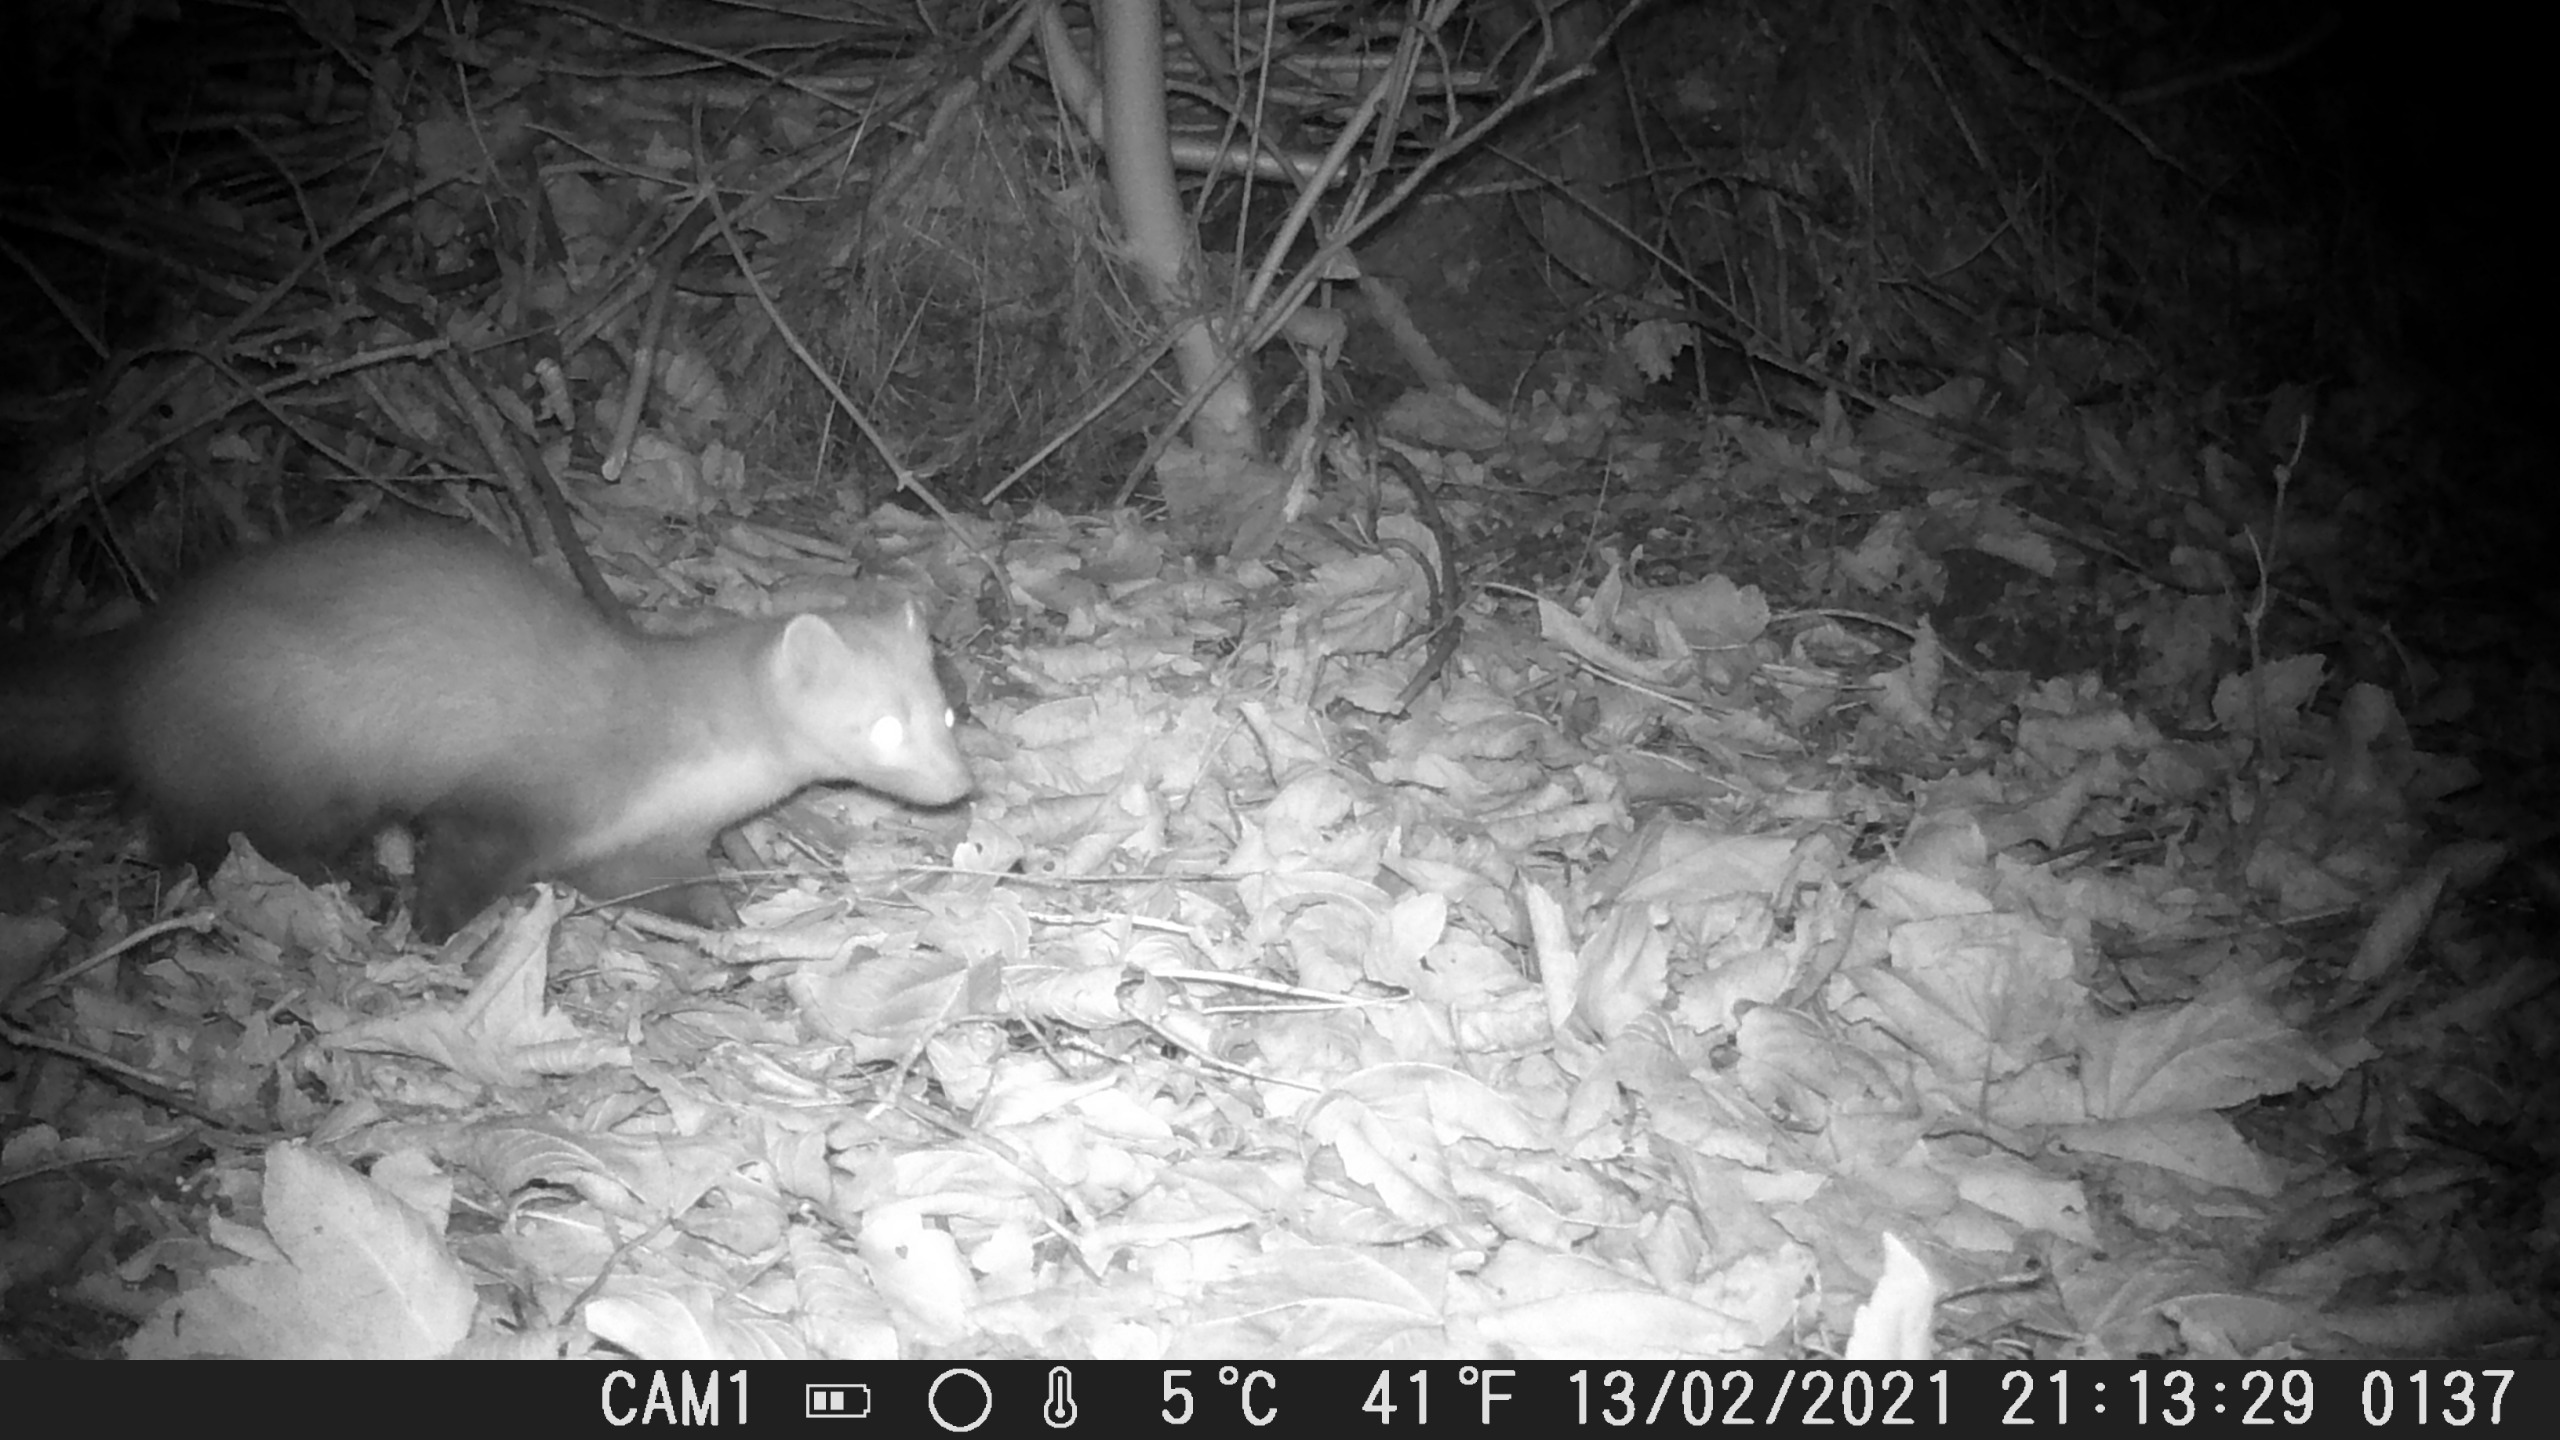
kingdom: Animalia
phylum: Chordata
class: Mammalia
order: Carnivora
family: Mustelidae
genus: Martes
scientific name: Martes foina
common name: Husmår
